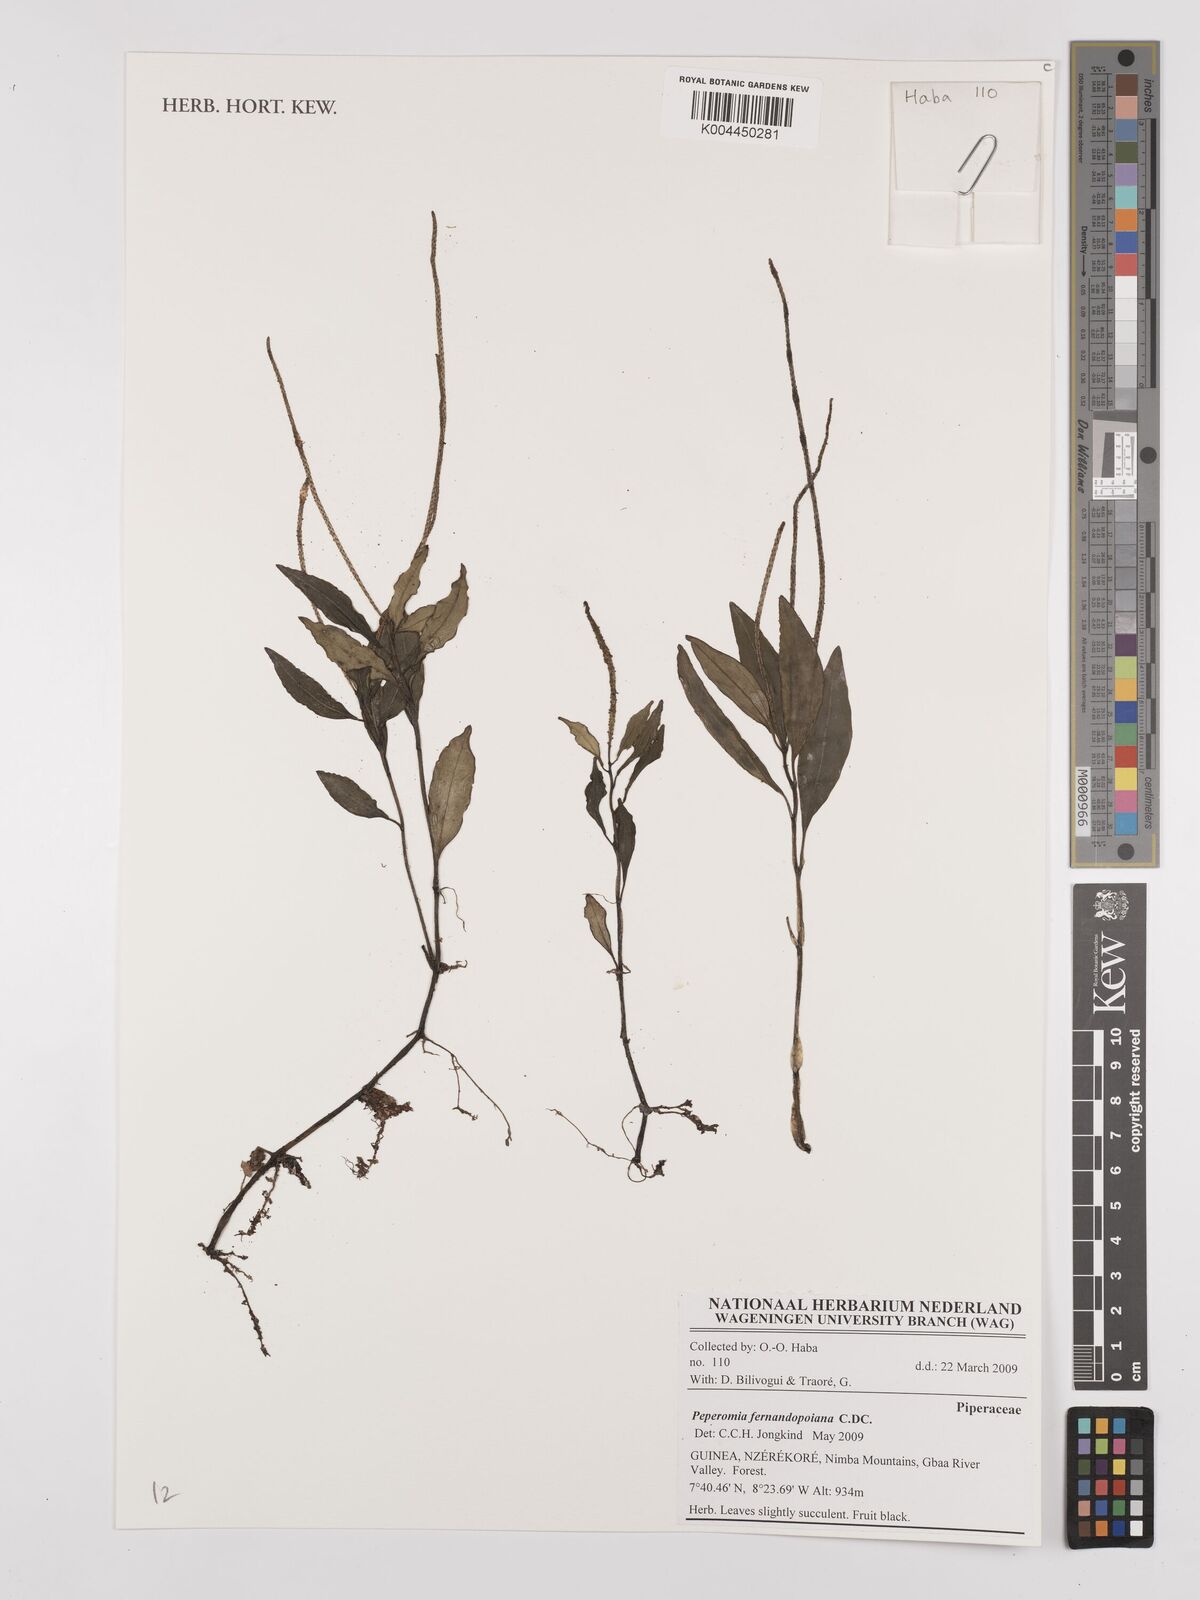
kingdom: Plantae
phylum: Tracheophyta
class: Magnoliopsida
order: Piperales
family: Piperaceae
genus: Peperomia
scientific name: Peperomia fernandeziana
